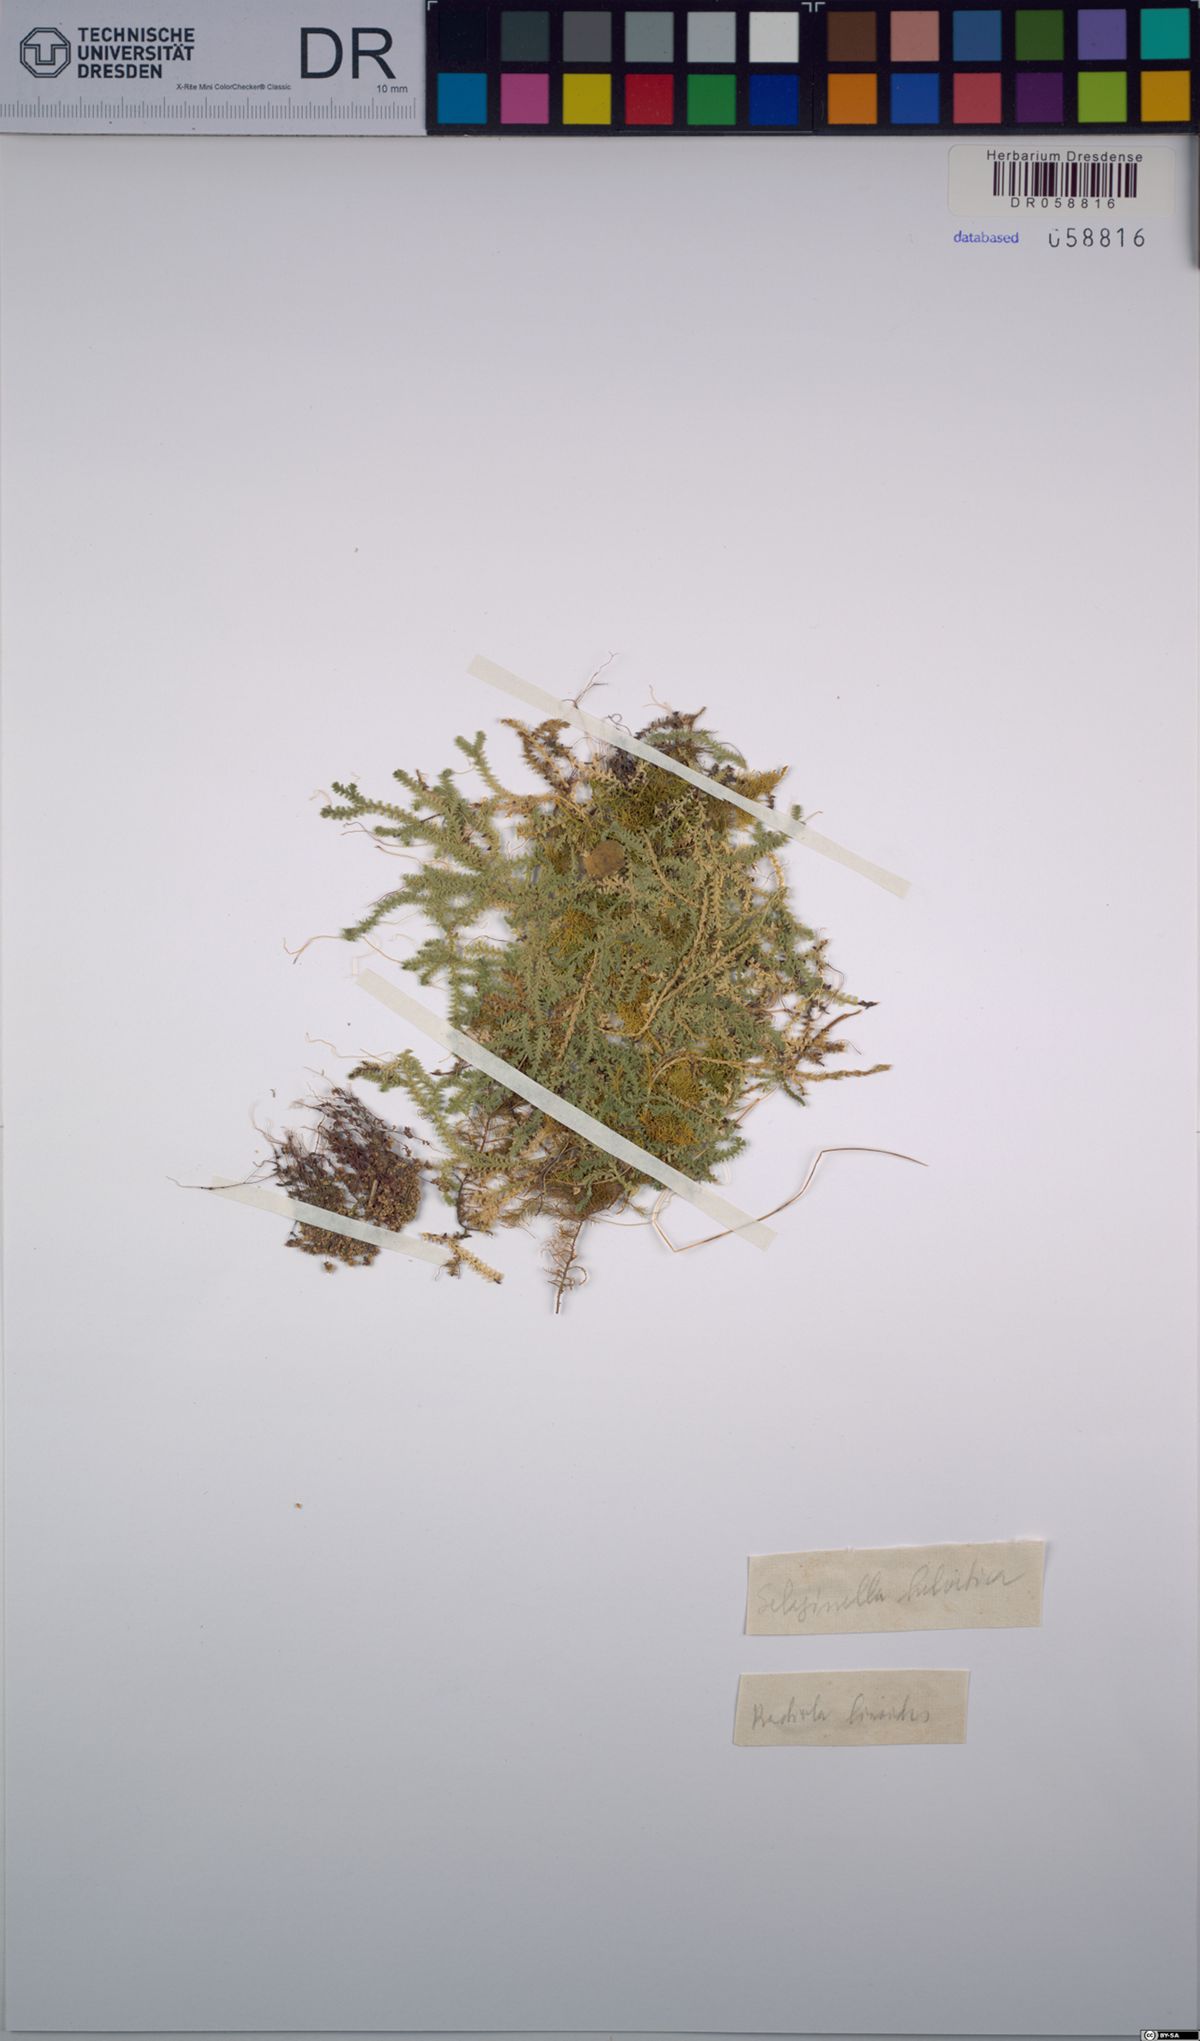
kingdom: Plantae
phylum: Tracheophyta
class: Lycopodiopsida
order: Selaginellales
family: Selaginellaceae
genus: Selaginella
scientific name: Selaginella helvetica
